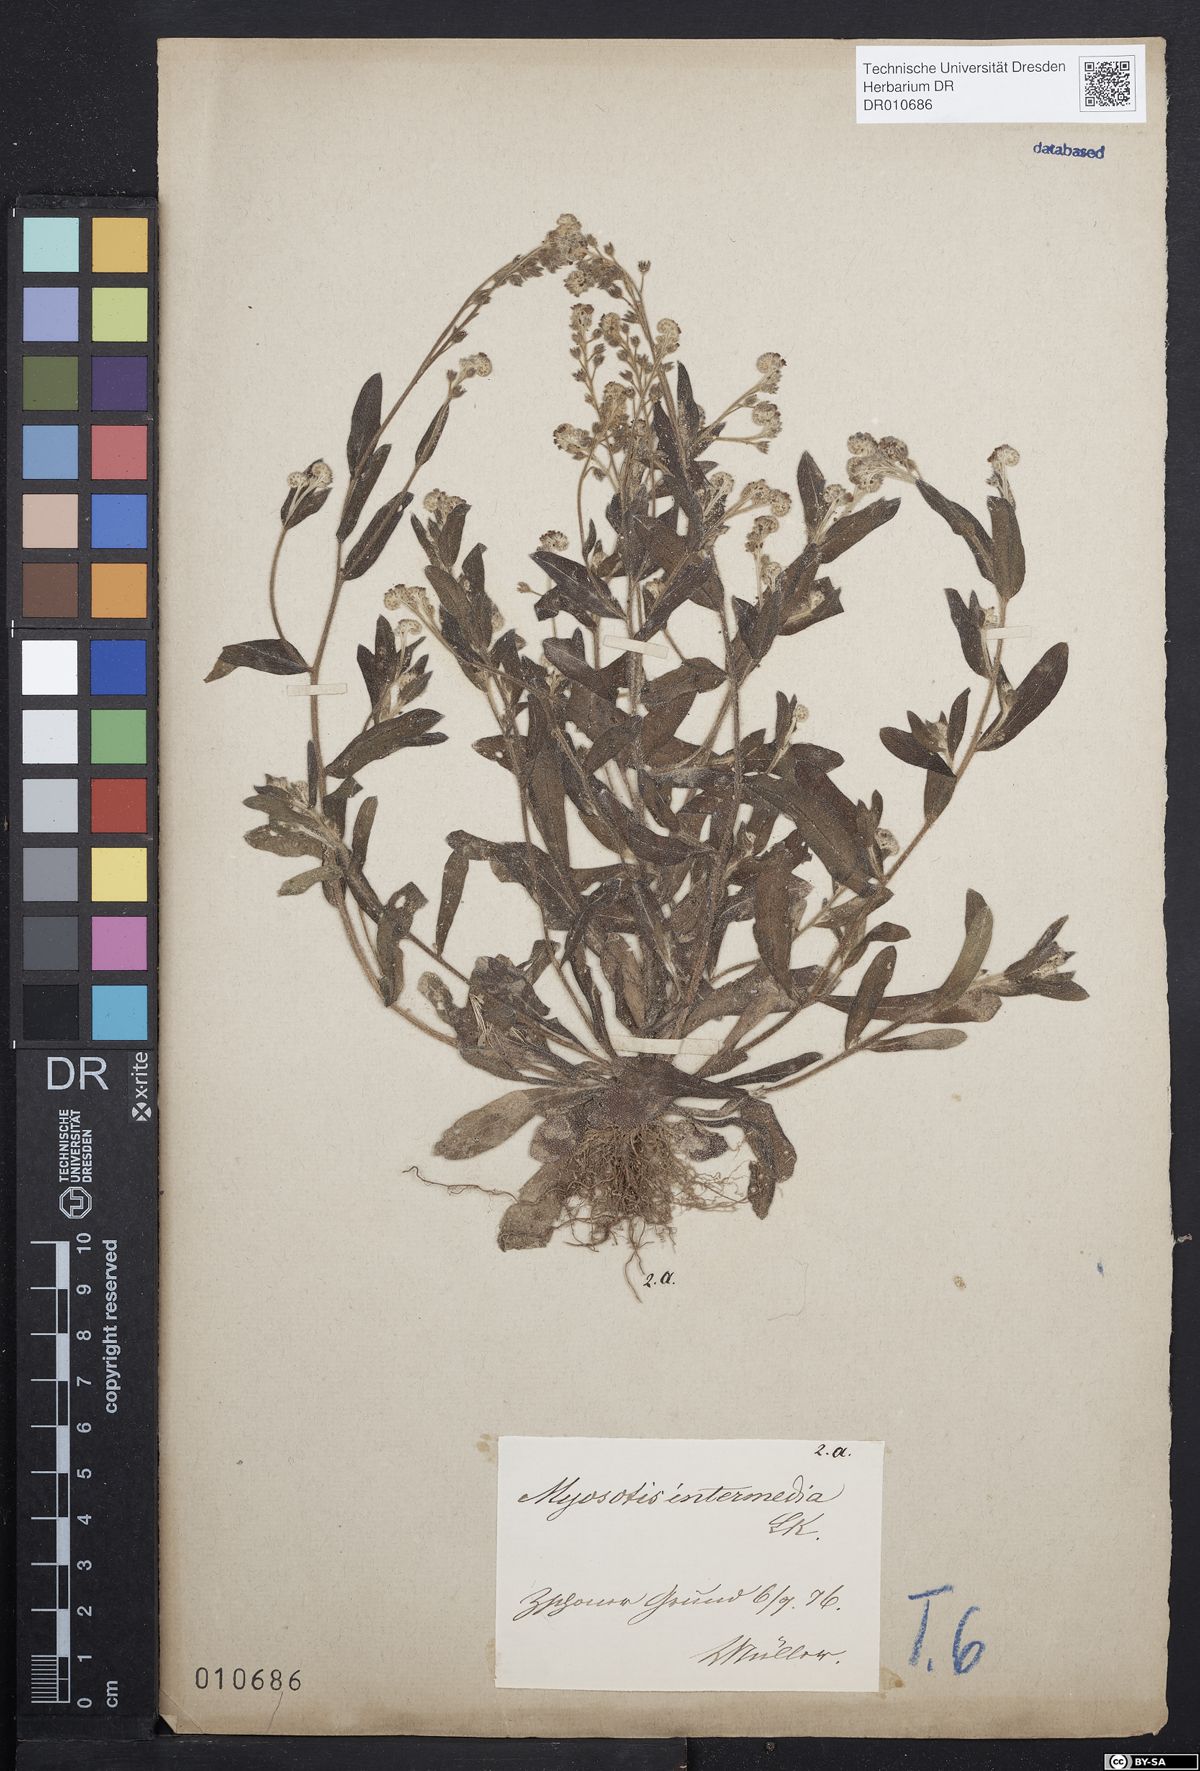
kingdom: Plantae
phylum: Tracheophyta
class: Magnoliopsida
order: Boraginales
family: Boraginaceae
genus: Myosotis
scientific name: Myosotis arvensis
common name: Field forget-me-not
